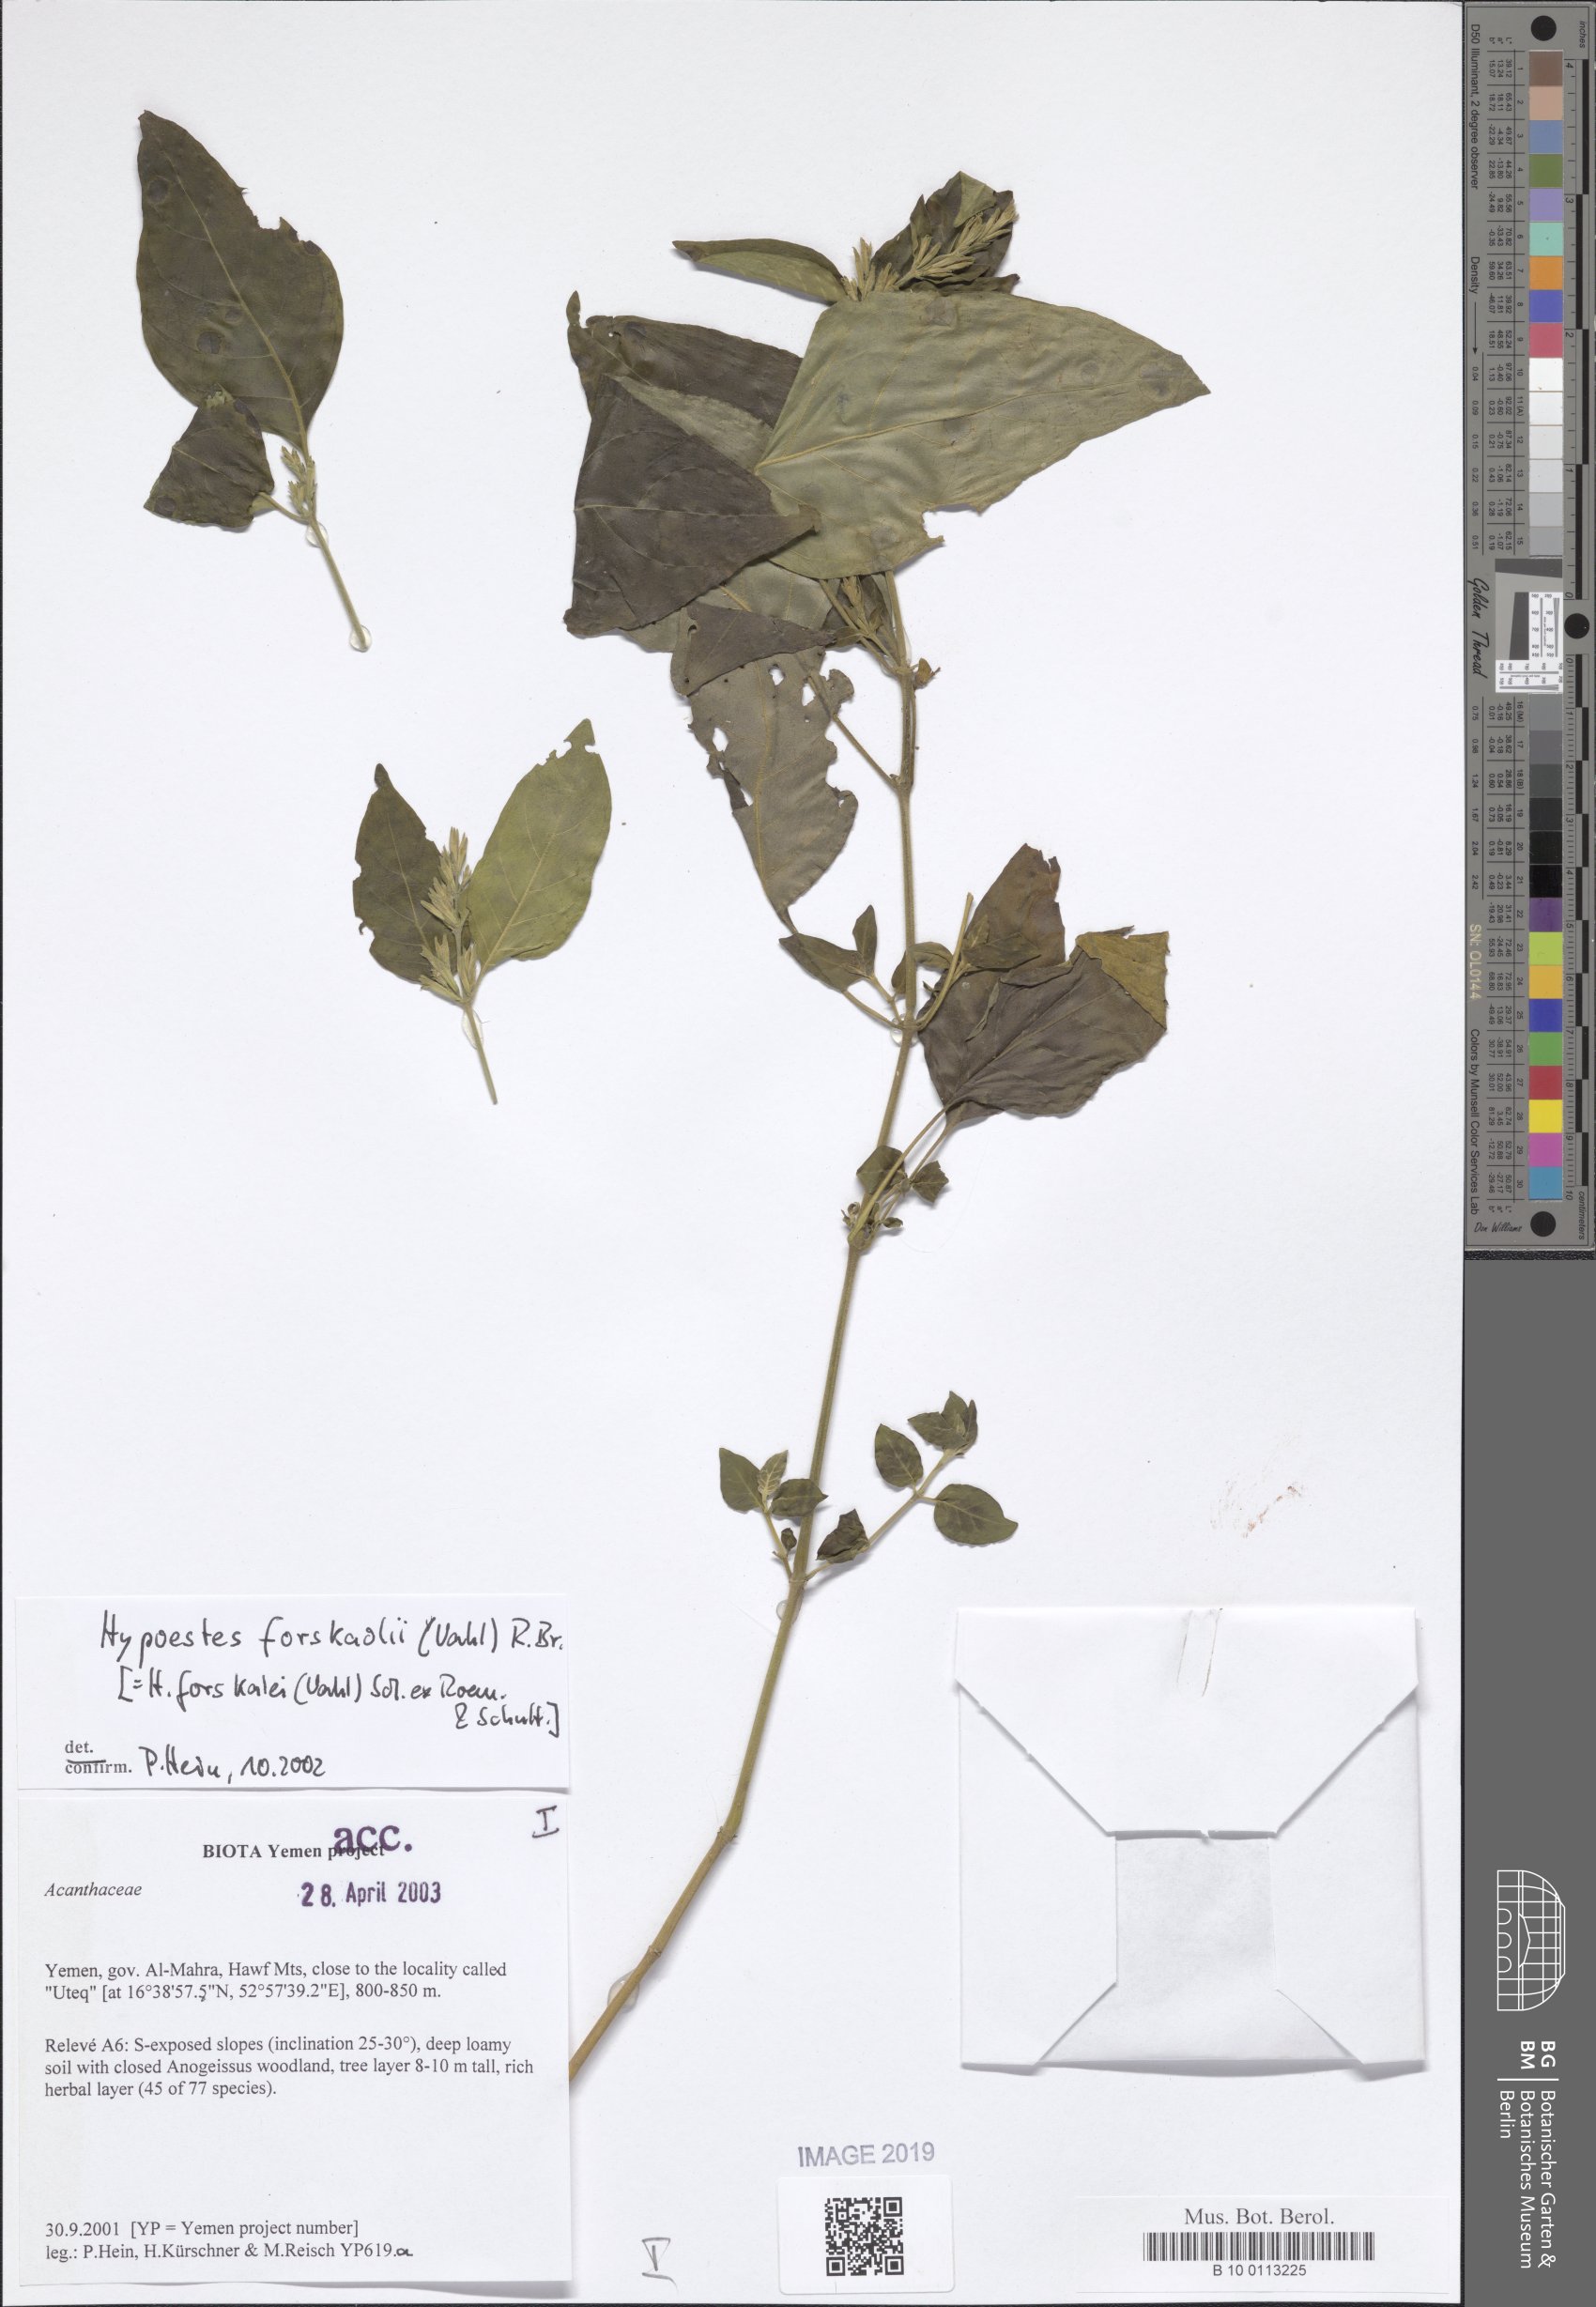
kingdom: Plantae
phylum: Tracheophyta
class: Magnoliopsida
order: Lamiales
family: Acanthaceae
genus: Hypoestes
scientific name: Hypoestes forskaolii
